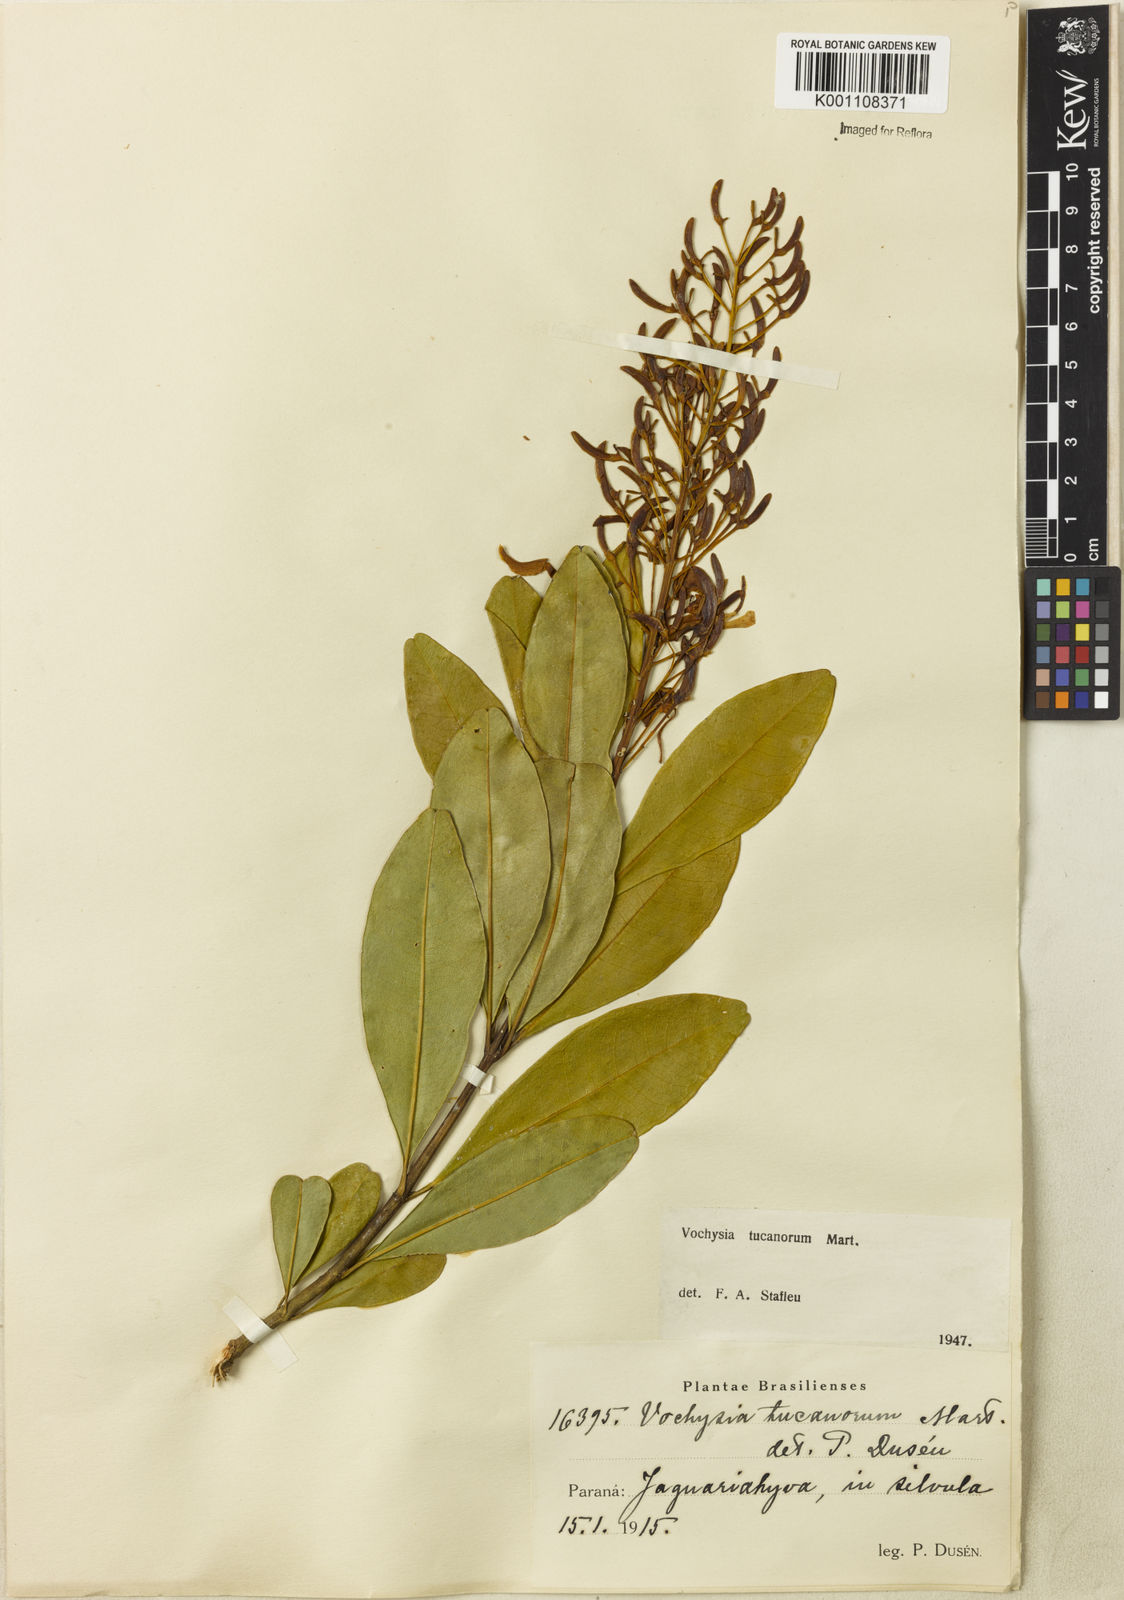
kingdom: Plantae
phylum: Tracheophyta
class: Magnoliopsida
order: Myrtales
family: Vochysiaceae
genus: Vochysia
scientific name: Vochysia tucanorum
